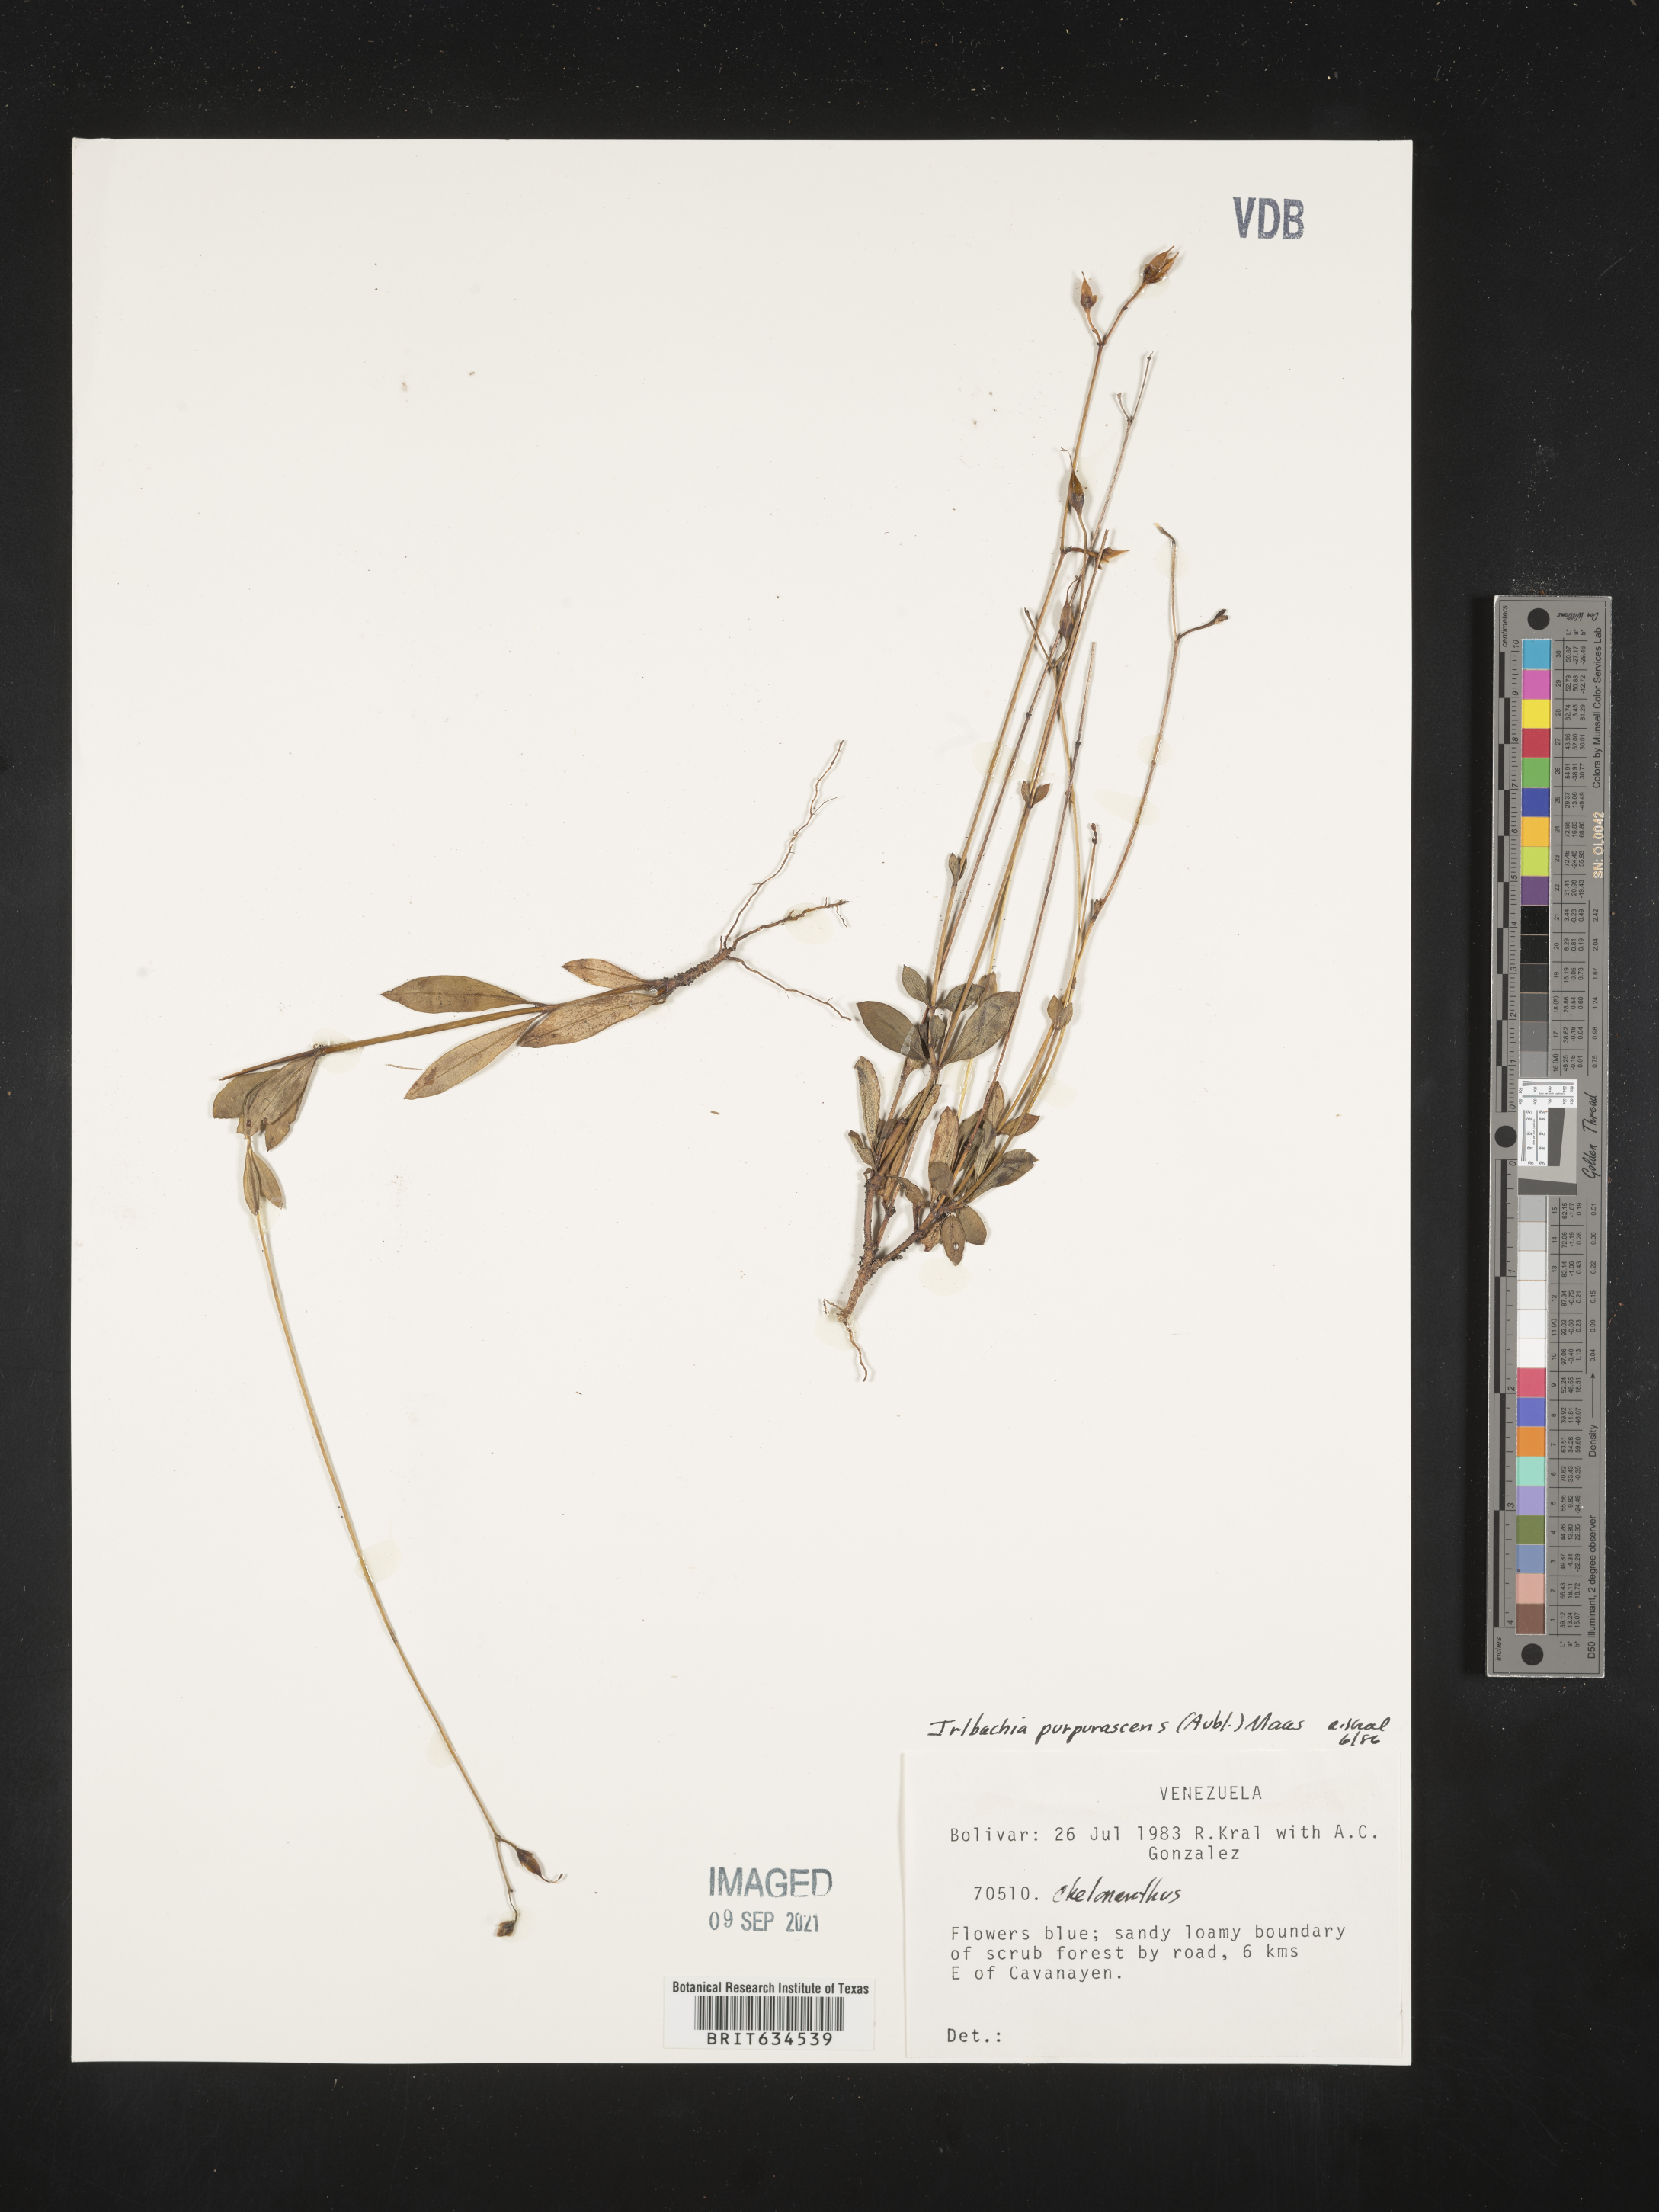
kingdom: Plantae
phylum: Tracheophyta
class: Magnoliopsida
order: Gentianales
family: Gentianaceae
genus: Irlbachia
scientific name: Irlbachia
